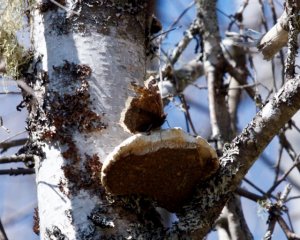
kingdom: Animalia
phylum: Arthropoda
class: Insecta
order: Lepidoptera
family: Nymphalidae
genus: Nymphalis
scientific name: Nymphalis antiopa
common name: Mourning Cloak
